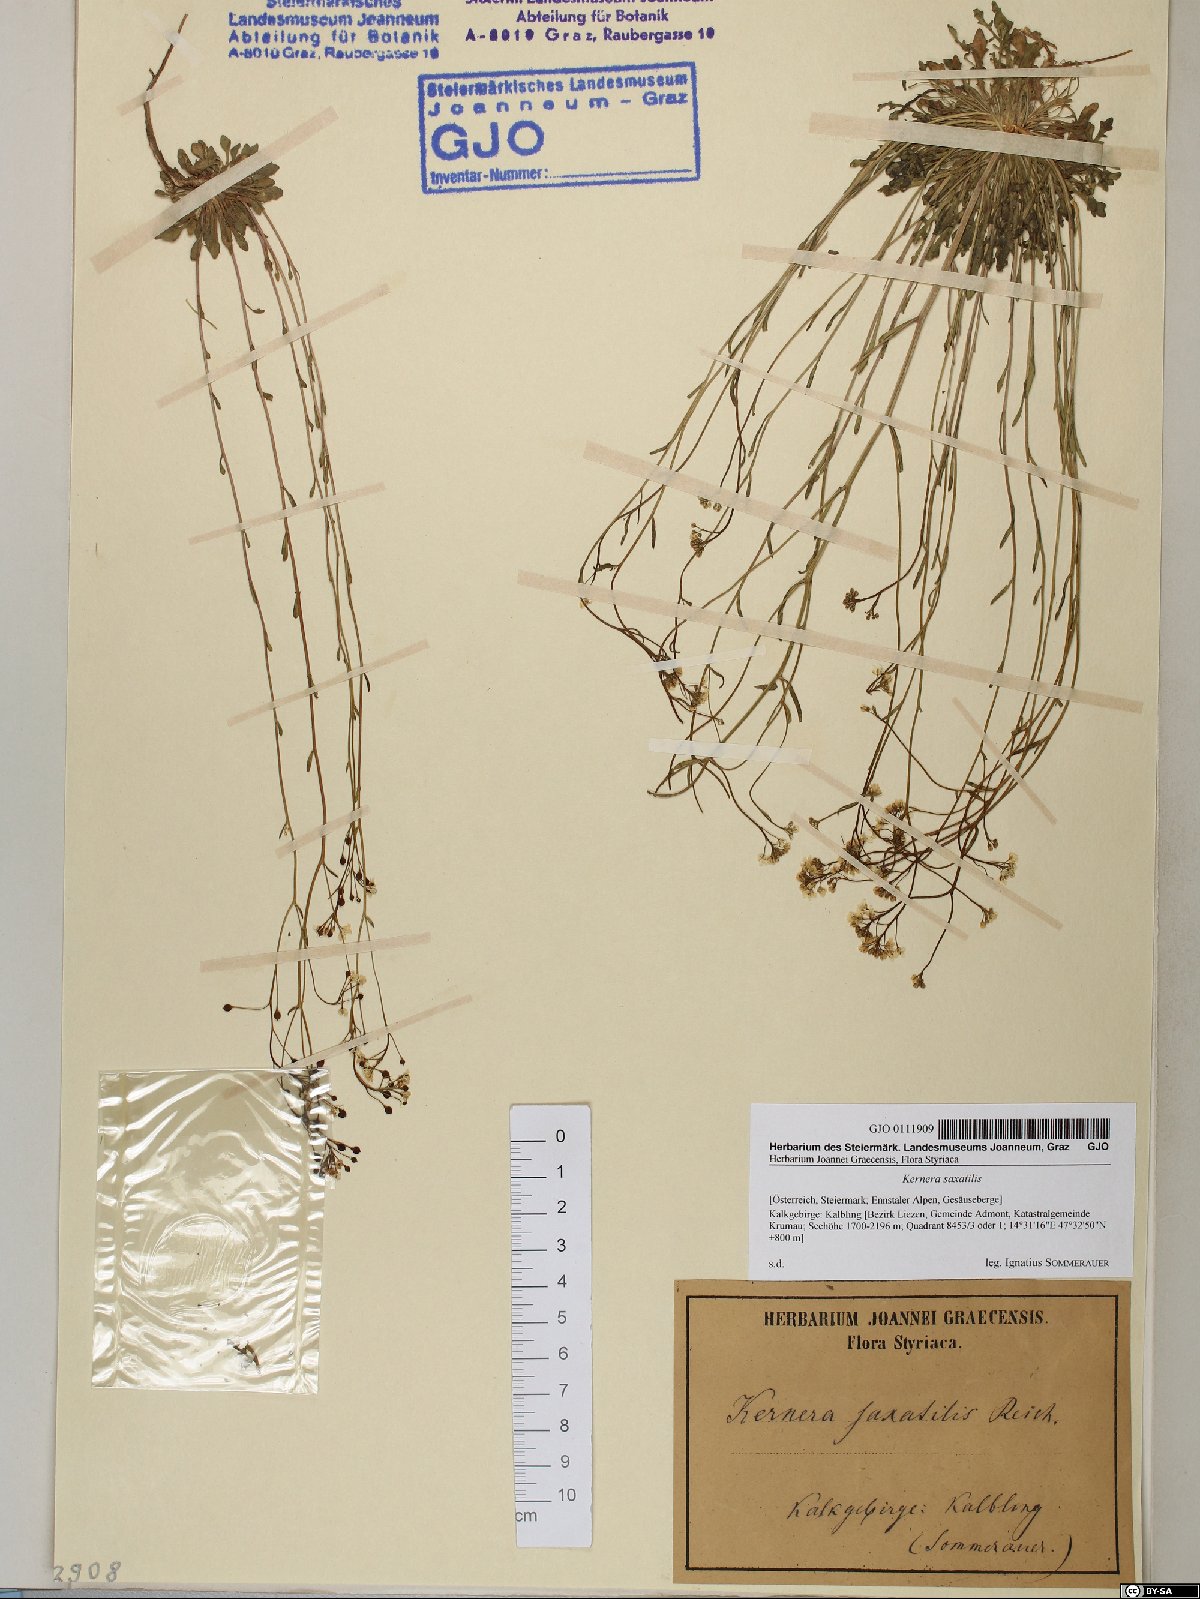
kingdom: Plantae
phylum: Tracheophyta
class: Magnoliopsida
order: Brassicales
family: Brassicaceae
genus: Kernera
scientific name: Kernera saxatilis
